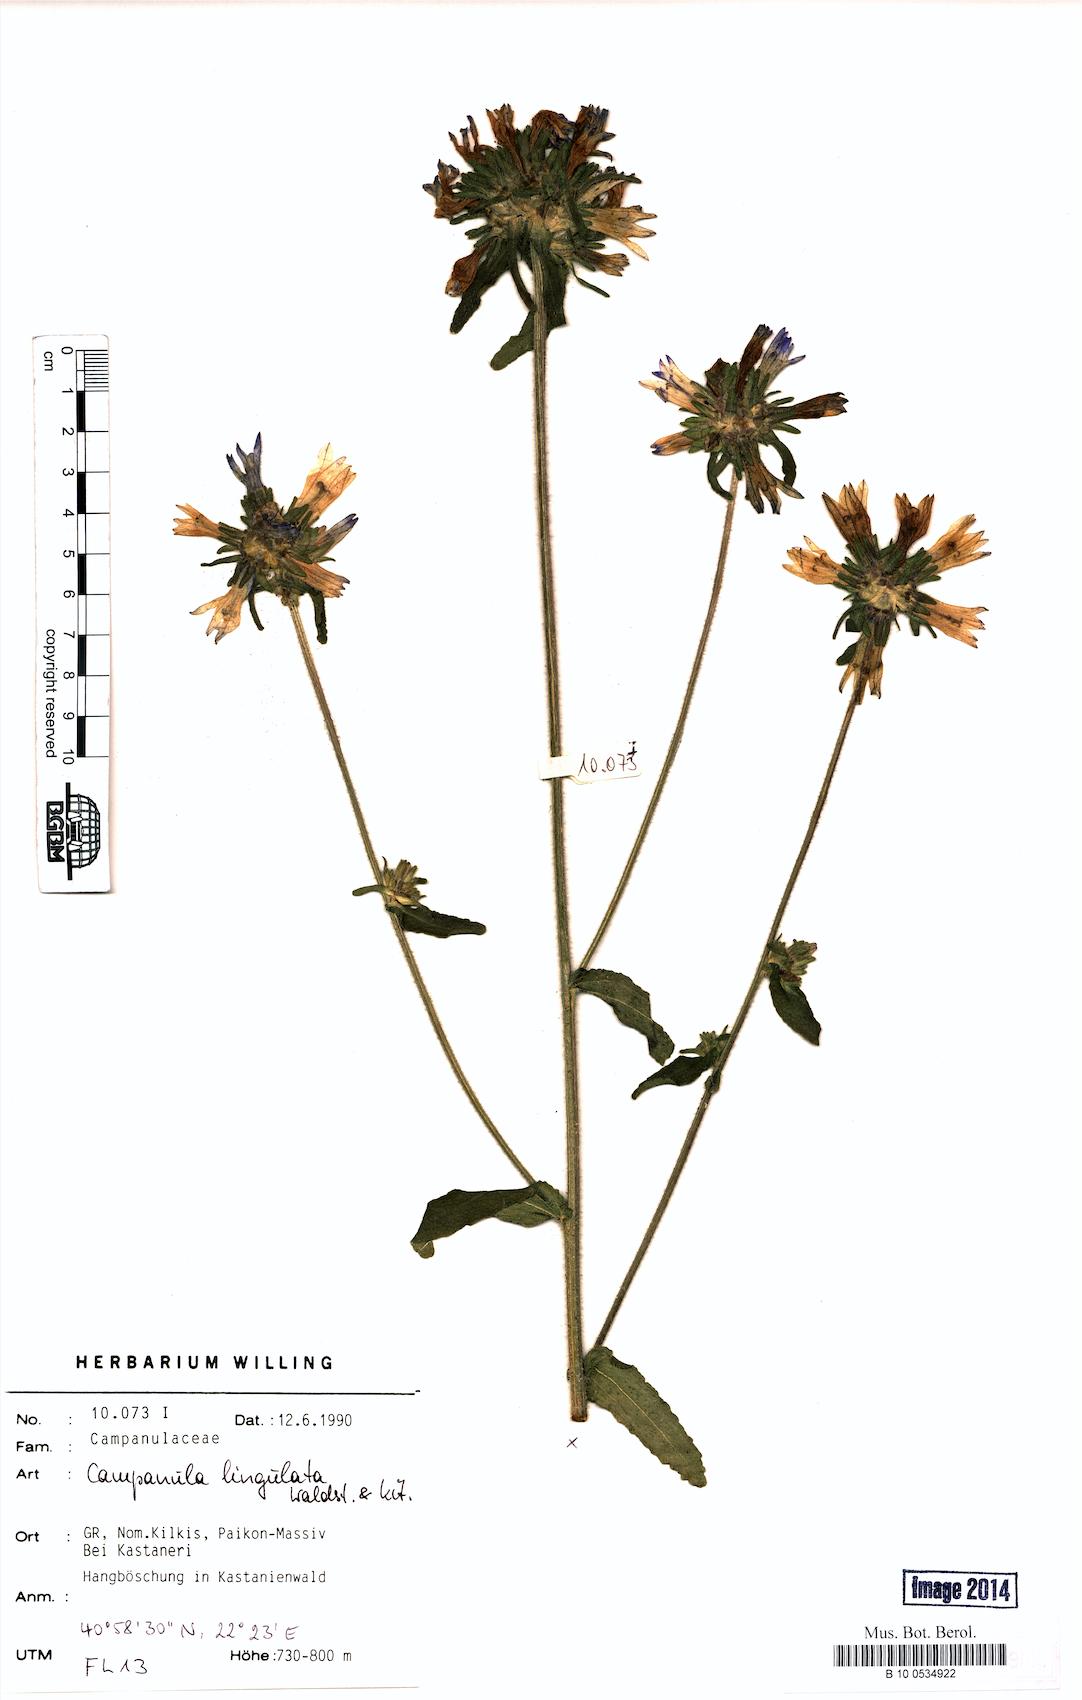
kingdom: Plantae
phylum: Tracheophyta
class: Magnoliopsida
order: Asterales
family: Campanulaceae
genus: Campanula
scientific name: Campanula lingulata
